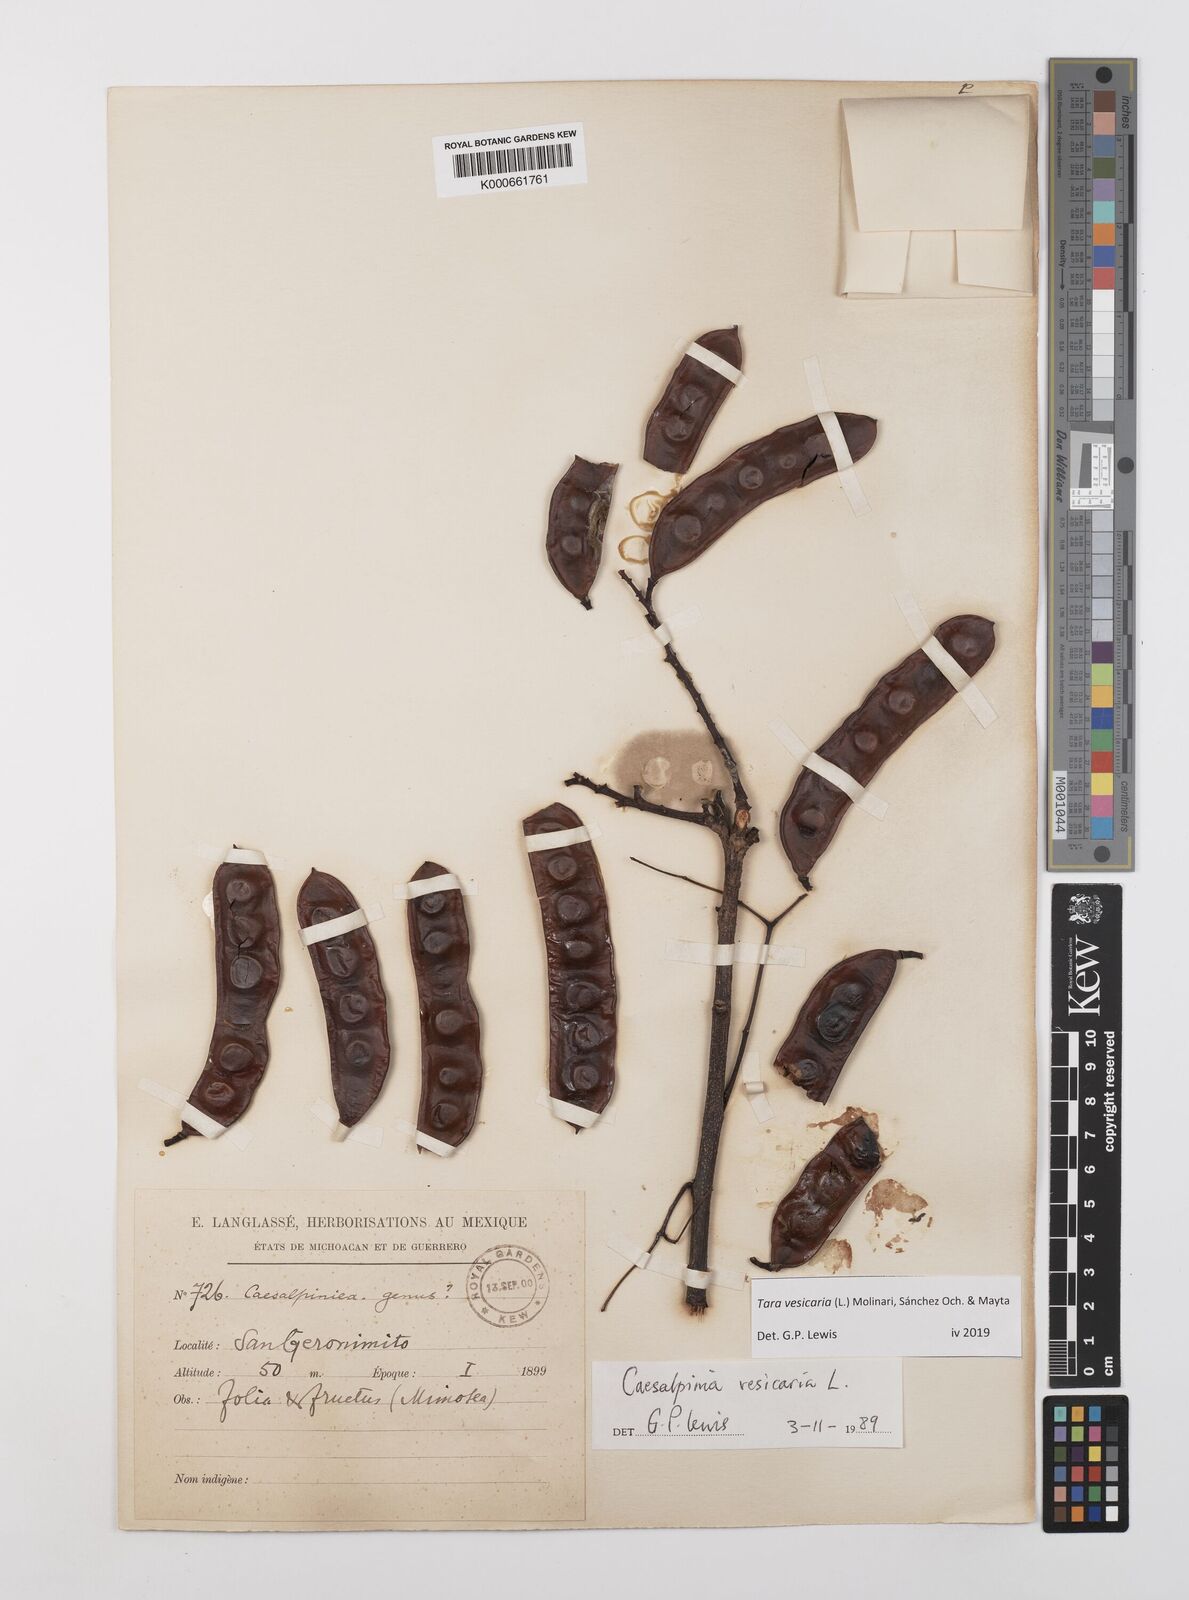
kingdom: Plantae
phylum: Tracheophyta
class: Magnoliopsida
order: Fabales
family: Fabaceae
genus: Tara
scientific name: Tara vesicaria
